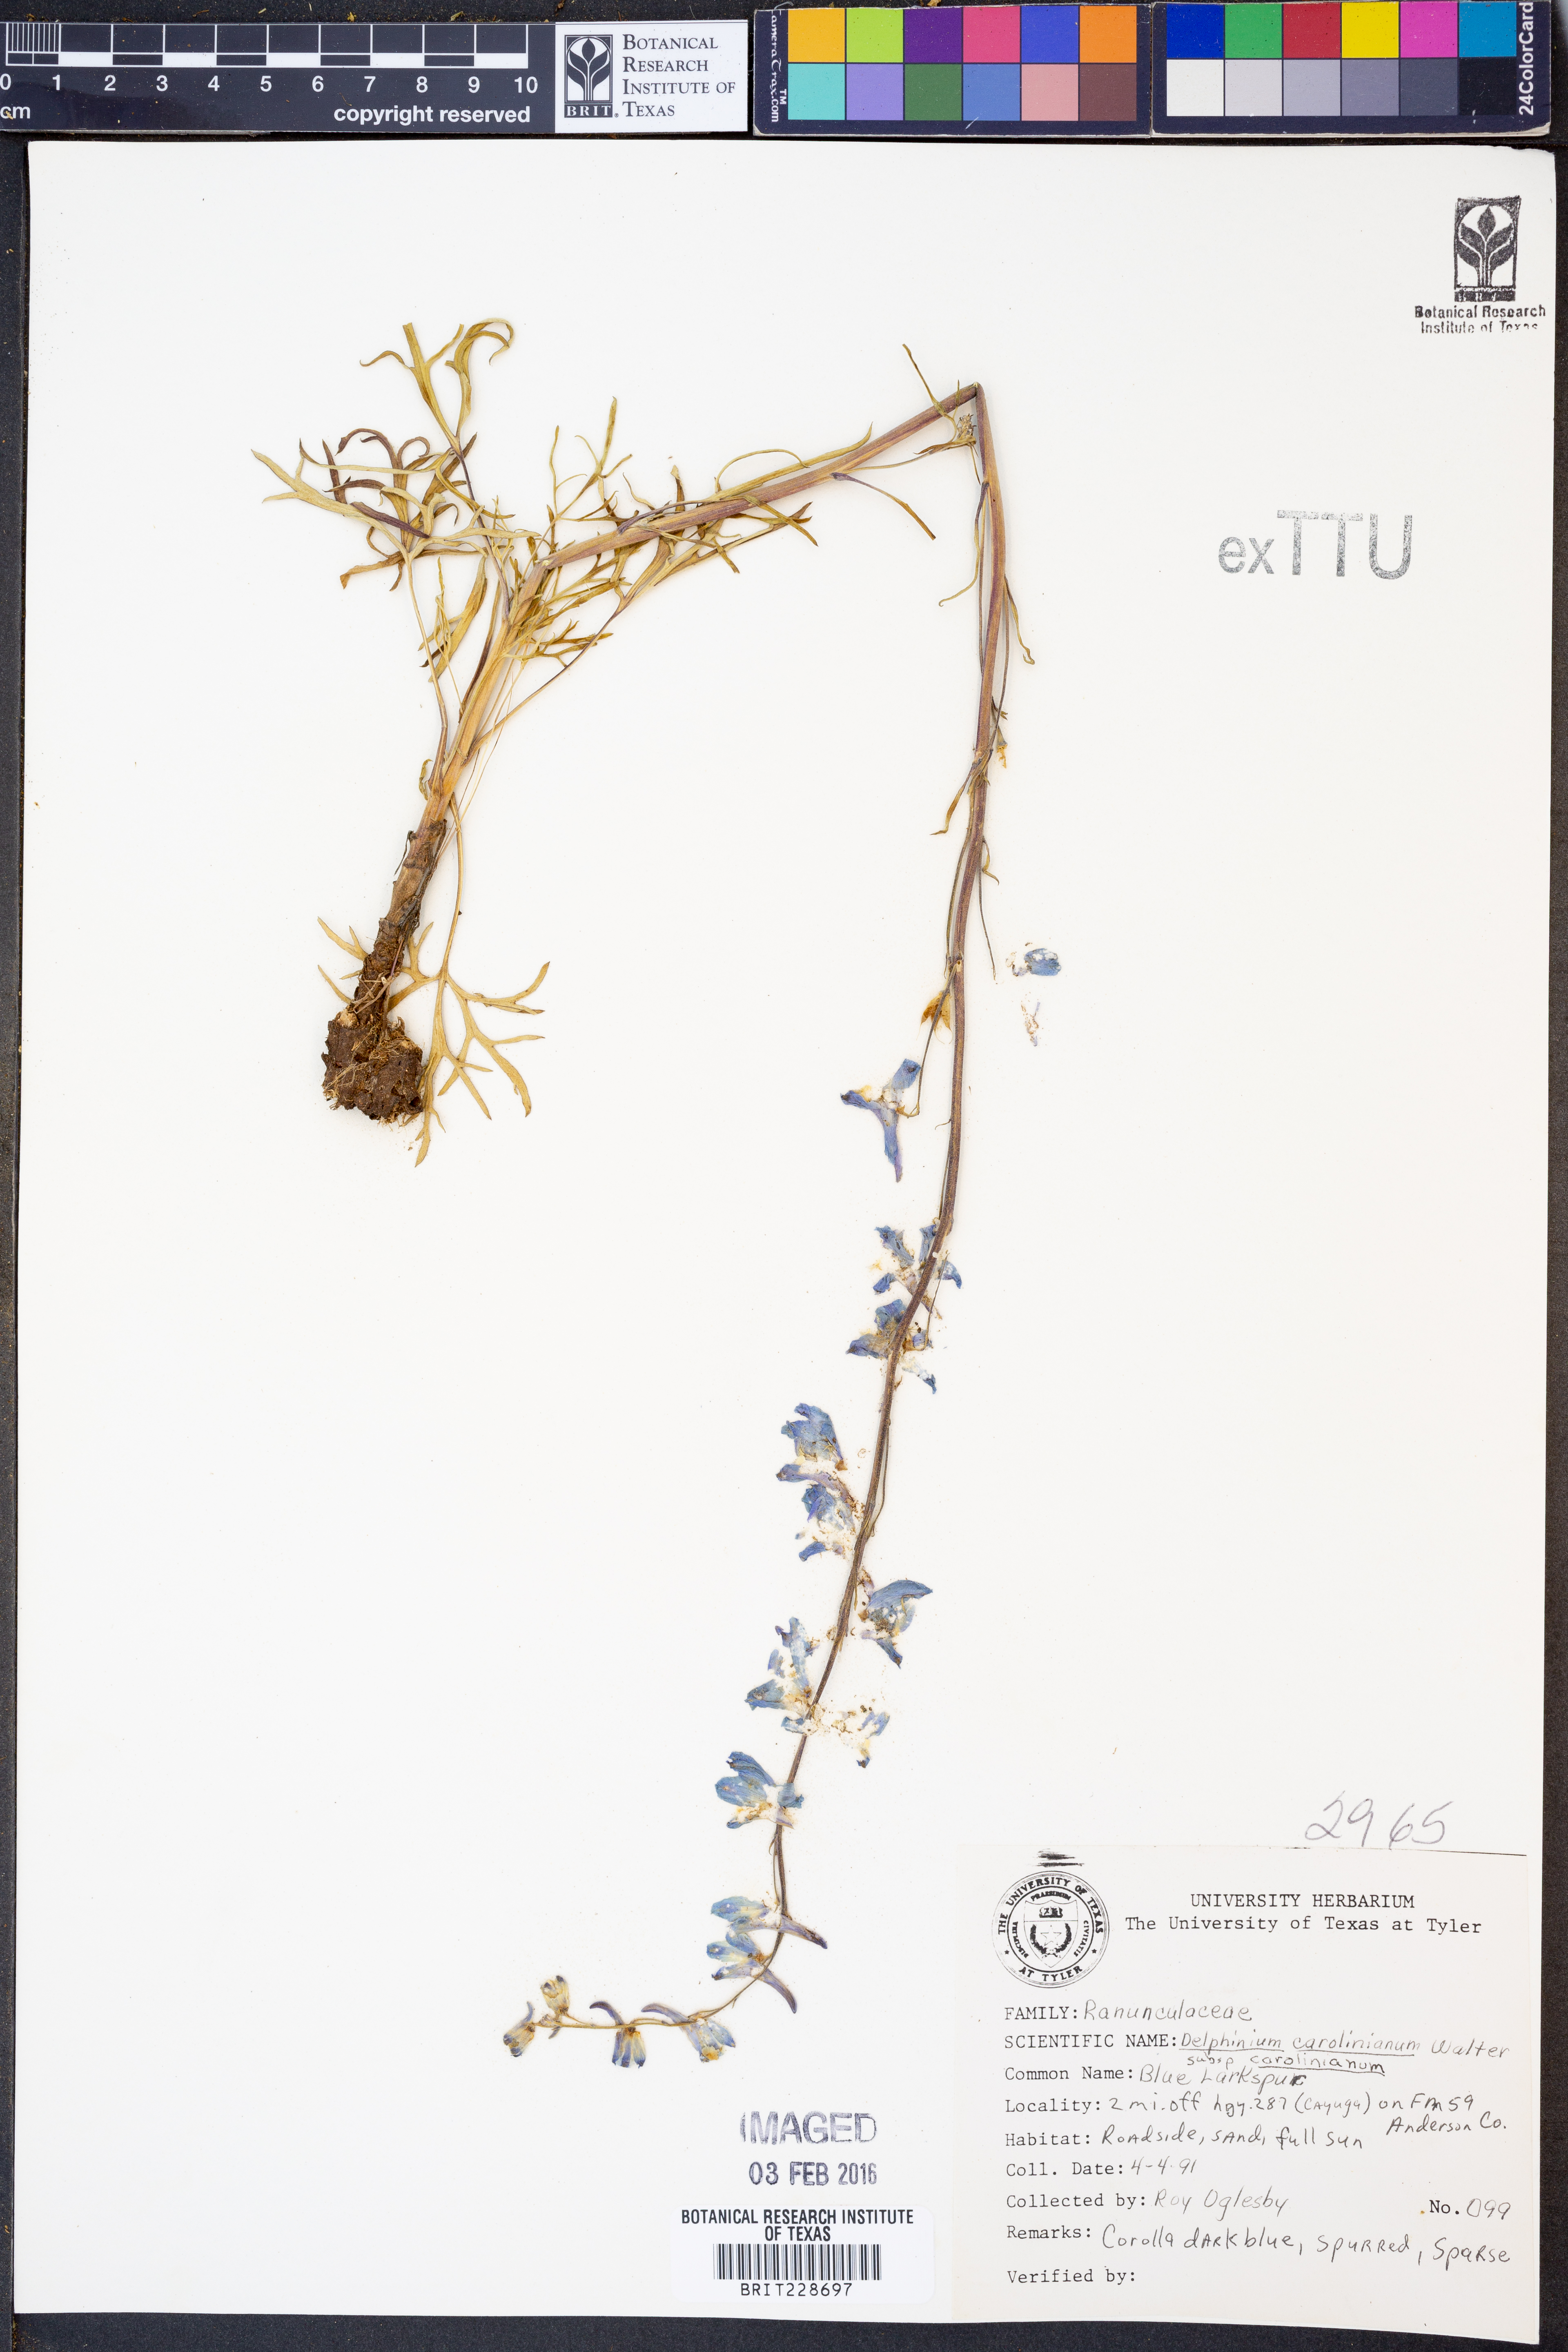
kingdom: Plantae
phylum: Tracheophyta
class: Magnoliopsida
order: Ranunculales
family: Ranunculaceae
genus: Delphinium
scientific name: Delphinium carolinianum
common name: Carolina larkspur
